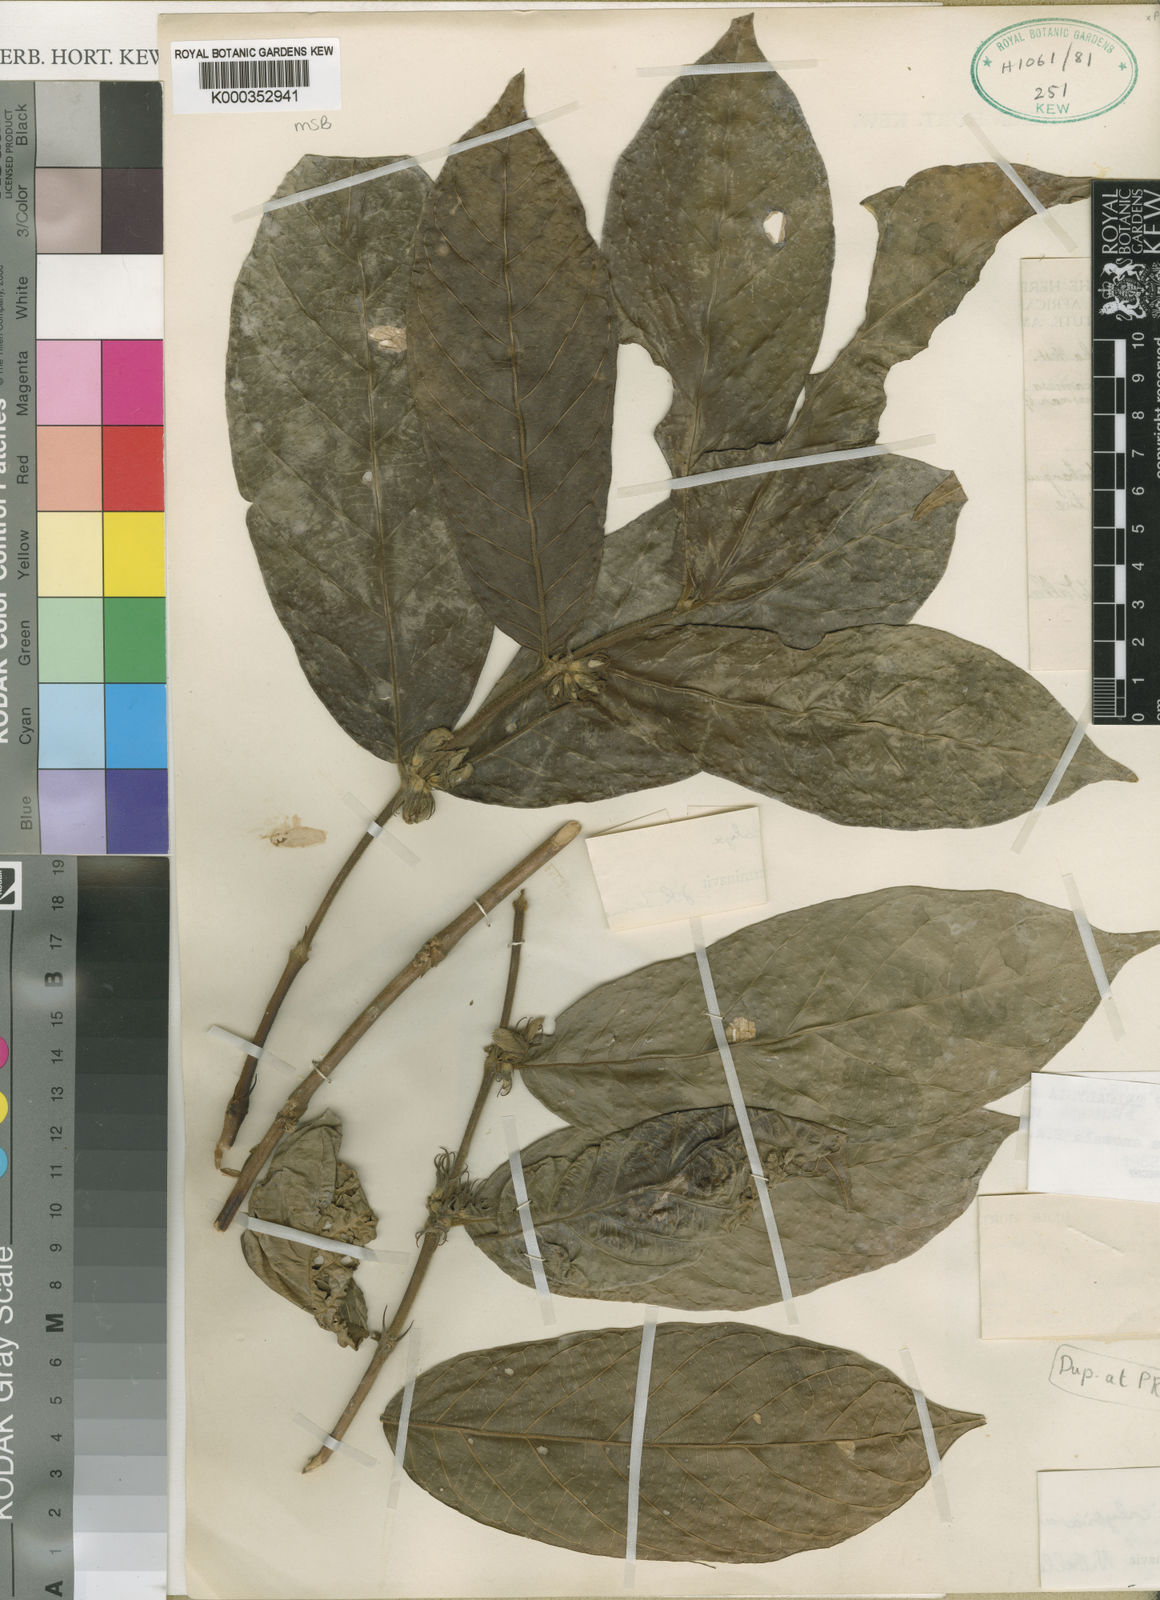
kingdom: Plantae
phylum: Tracheophyta
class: Magnoliopsida
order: Gentianales
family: Rubiaceae
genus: Tricalysia
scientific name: Tricalysia anomala
